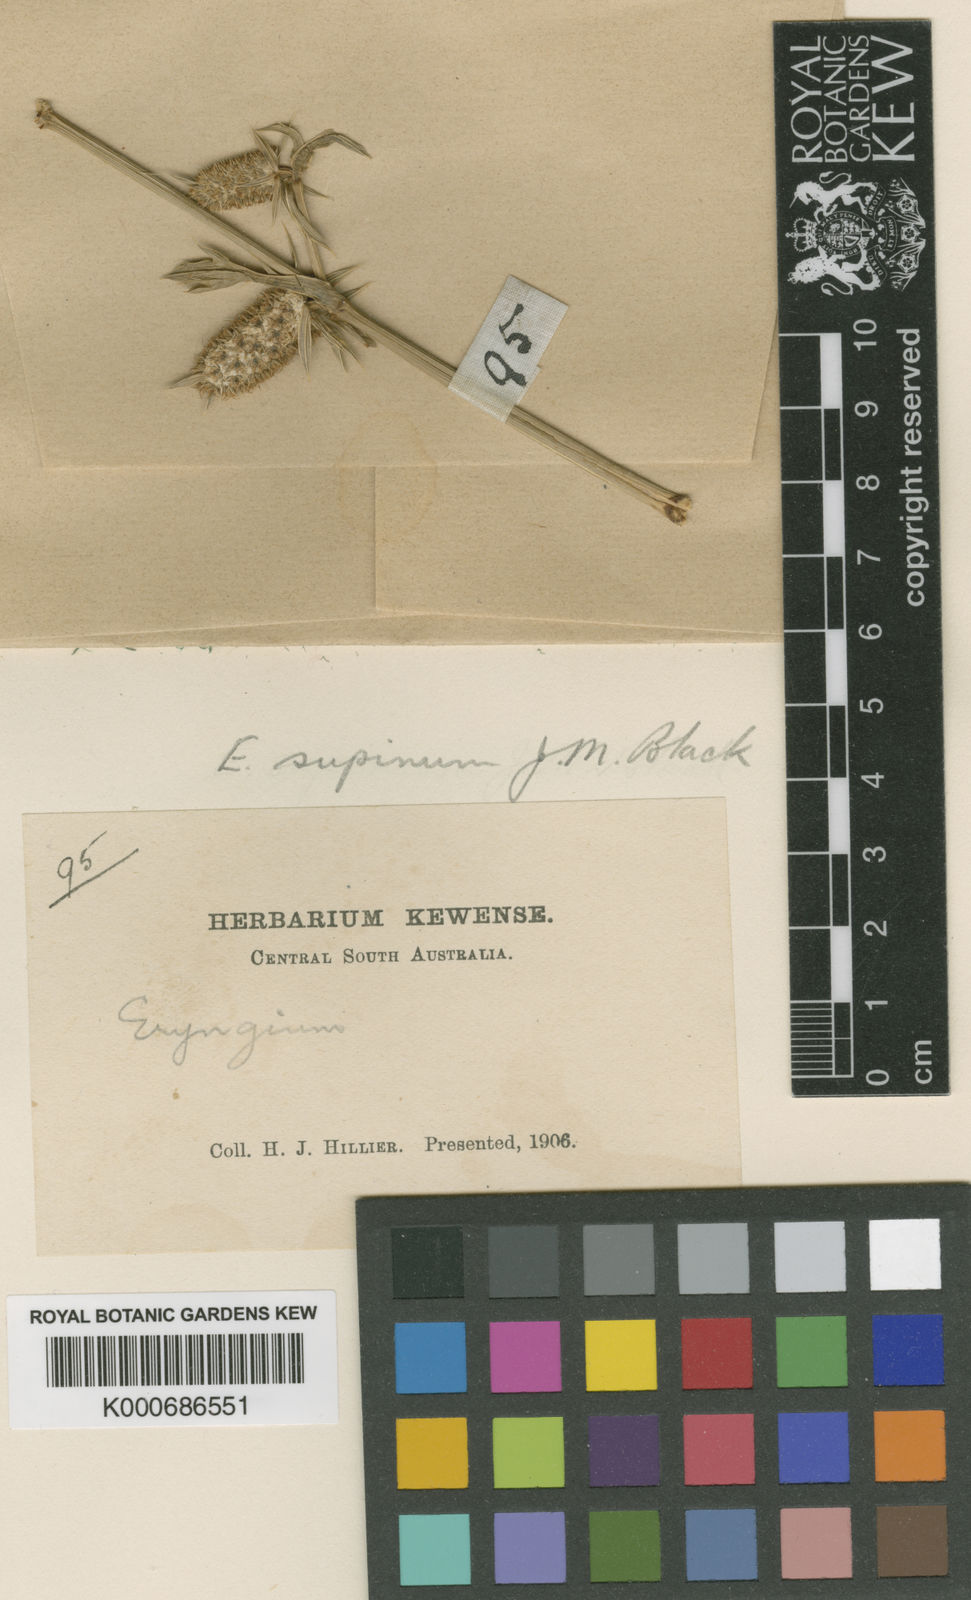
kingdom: Plantae
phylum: Tracheophyta
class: Magnoliopsida
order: Apiales
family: Apiaceae
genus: Eryngium
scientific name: Eryngium supinum
